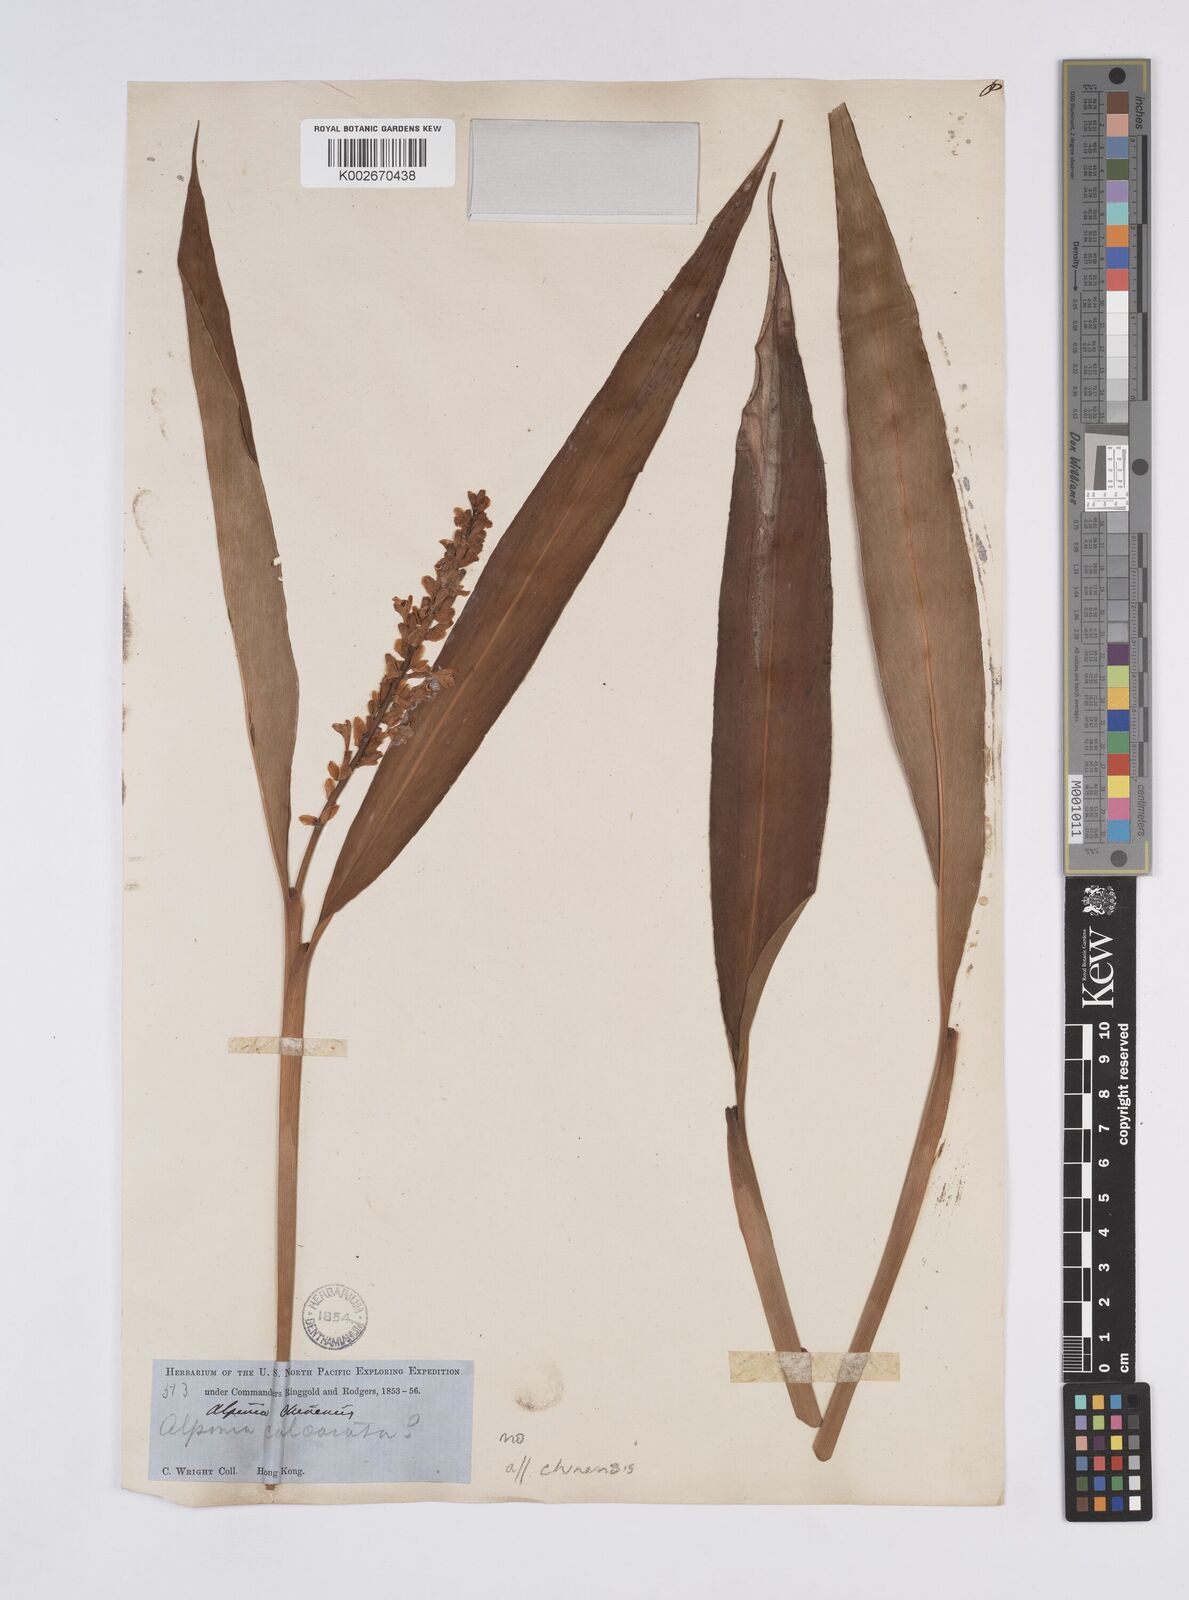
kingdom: Plantae
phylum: Tracheophyta
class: Liliopsida
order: Zingiberales
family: Zingiberaceae
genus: Alpinia
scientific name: Alpinia chinensis
